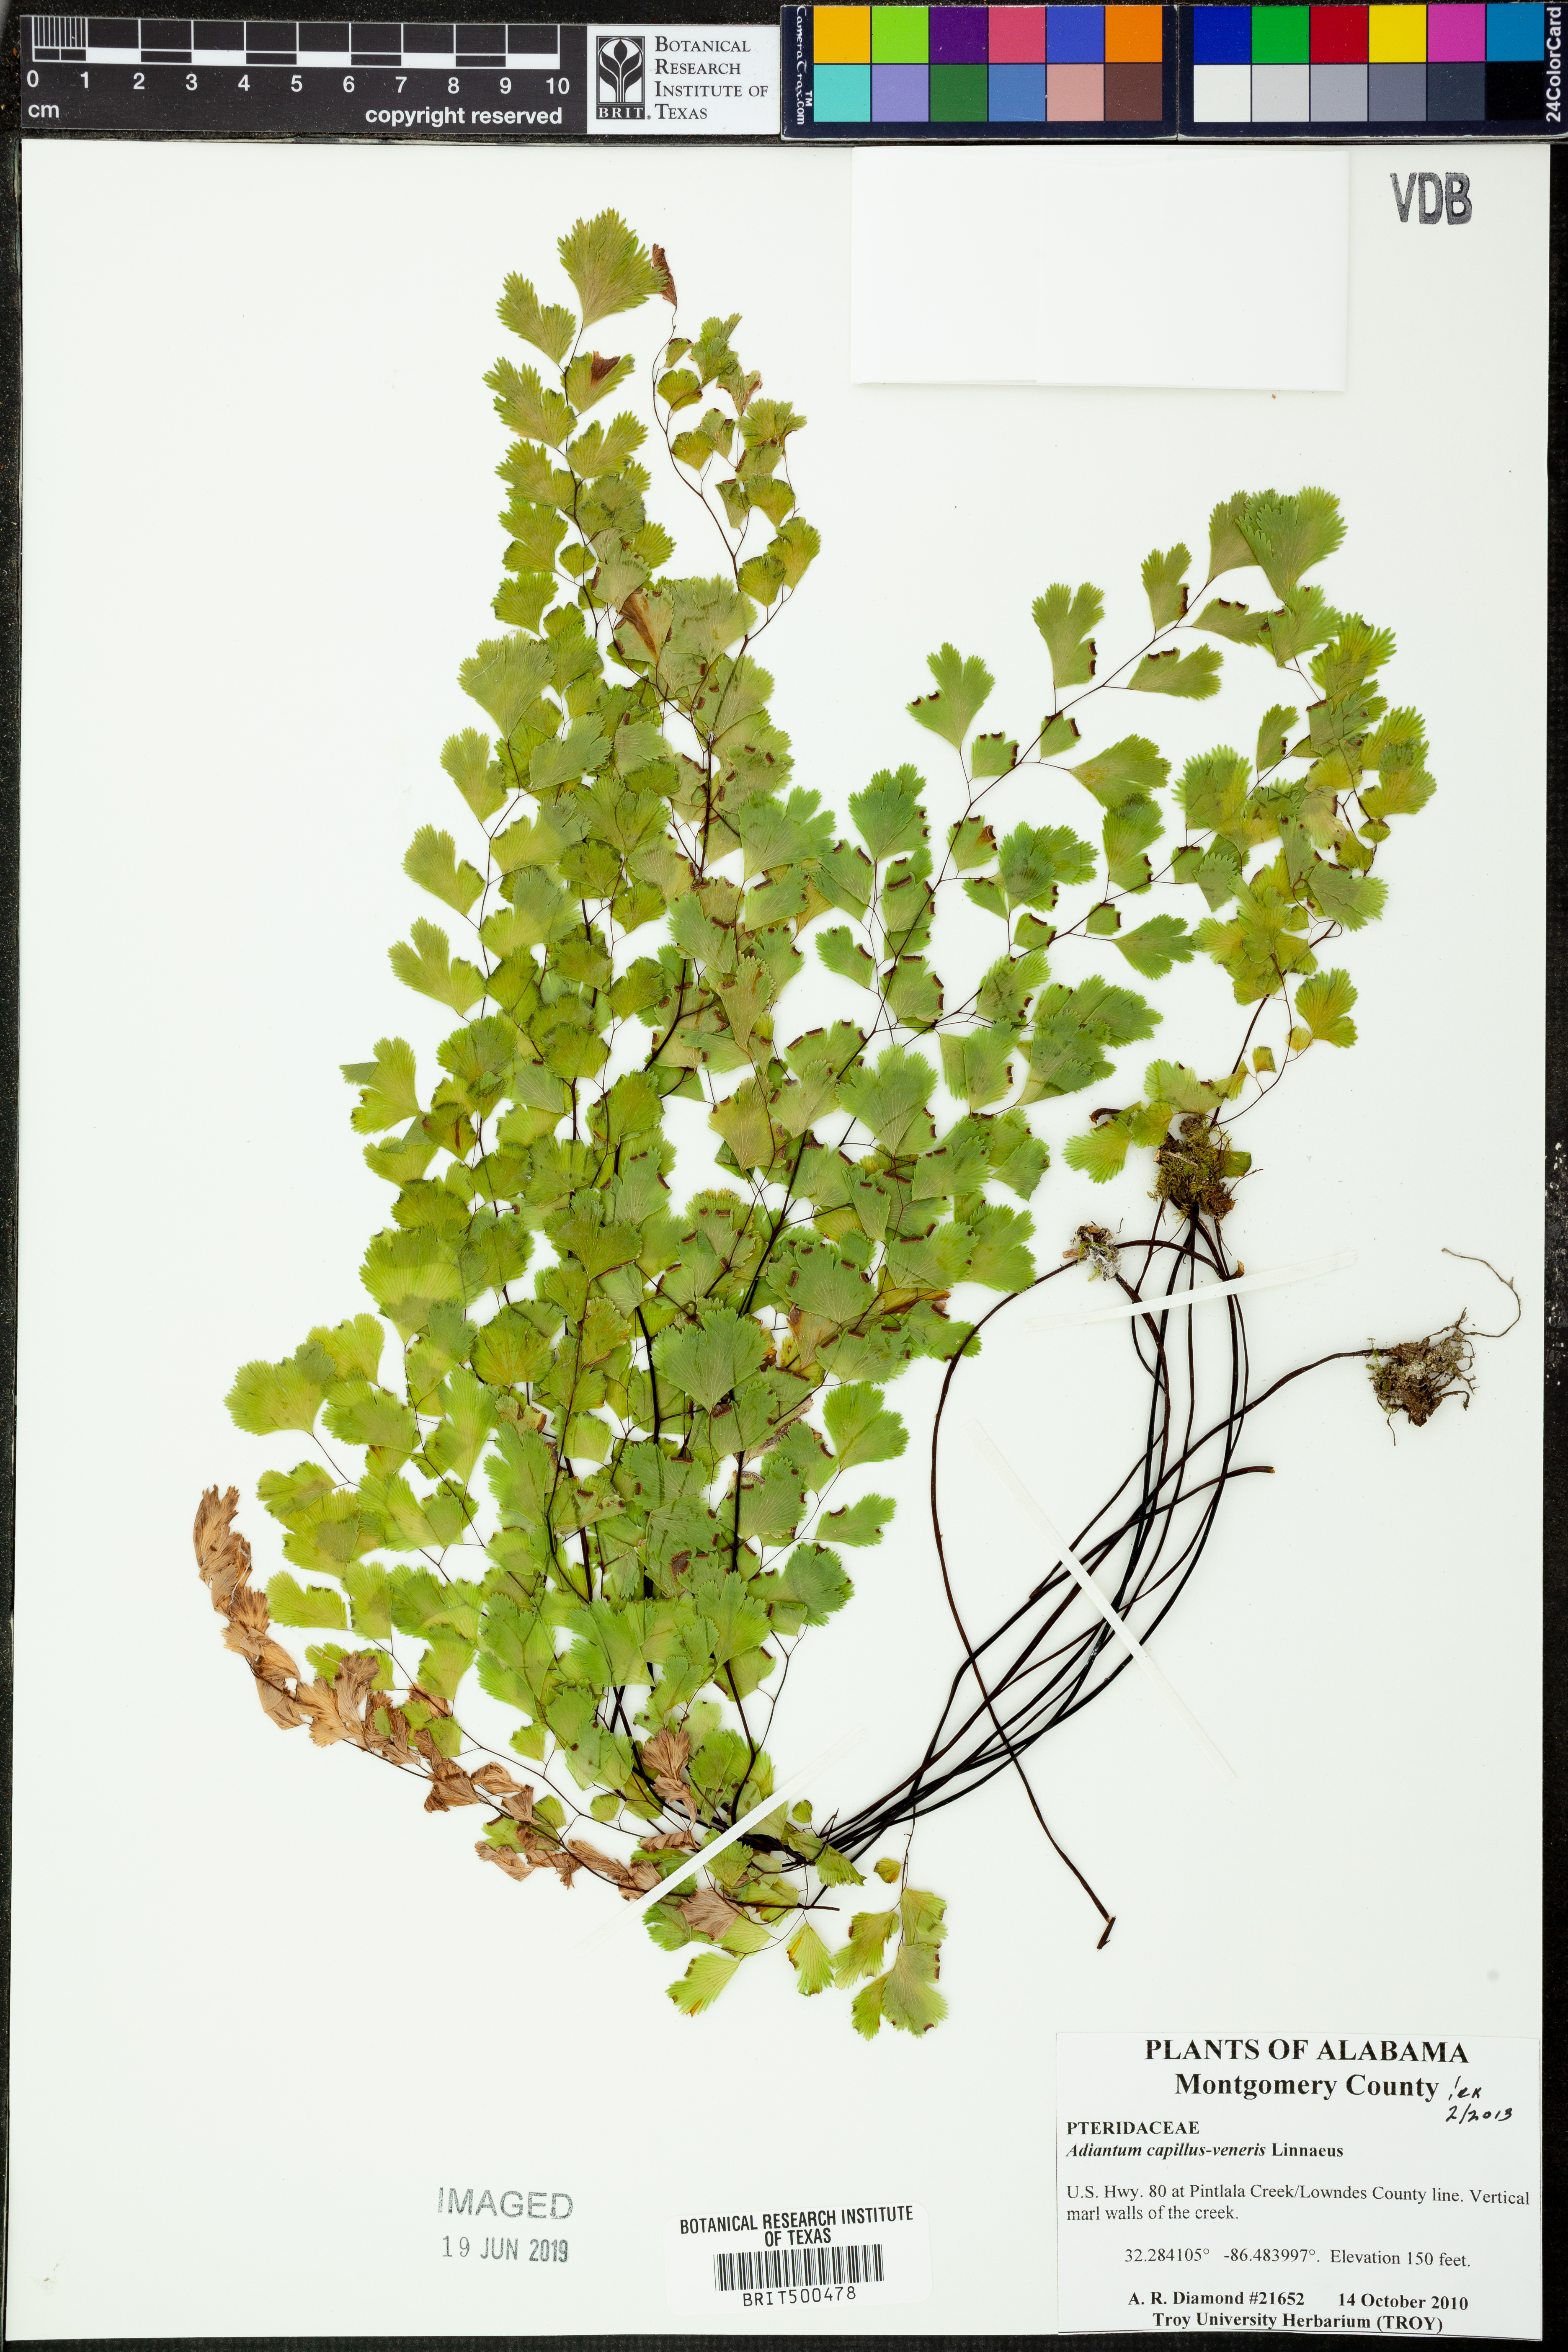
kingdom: Plantae
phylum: Tracheophyta
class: Polypodiopsida
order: Polypodiales
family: Pteridaceae
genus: Adiantum
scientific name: Adiantum capillus-veneris
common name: Maidenhair fern
